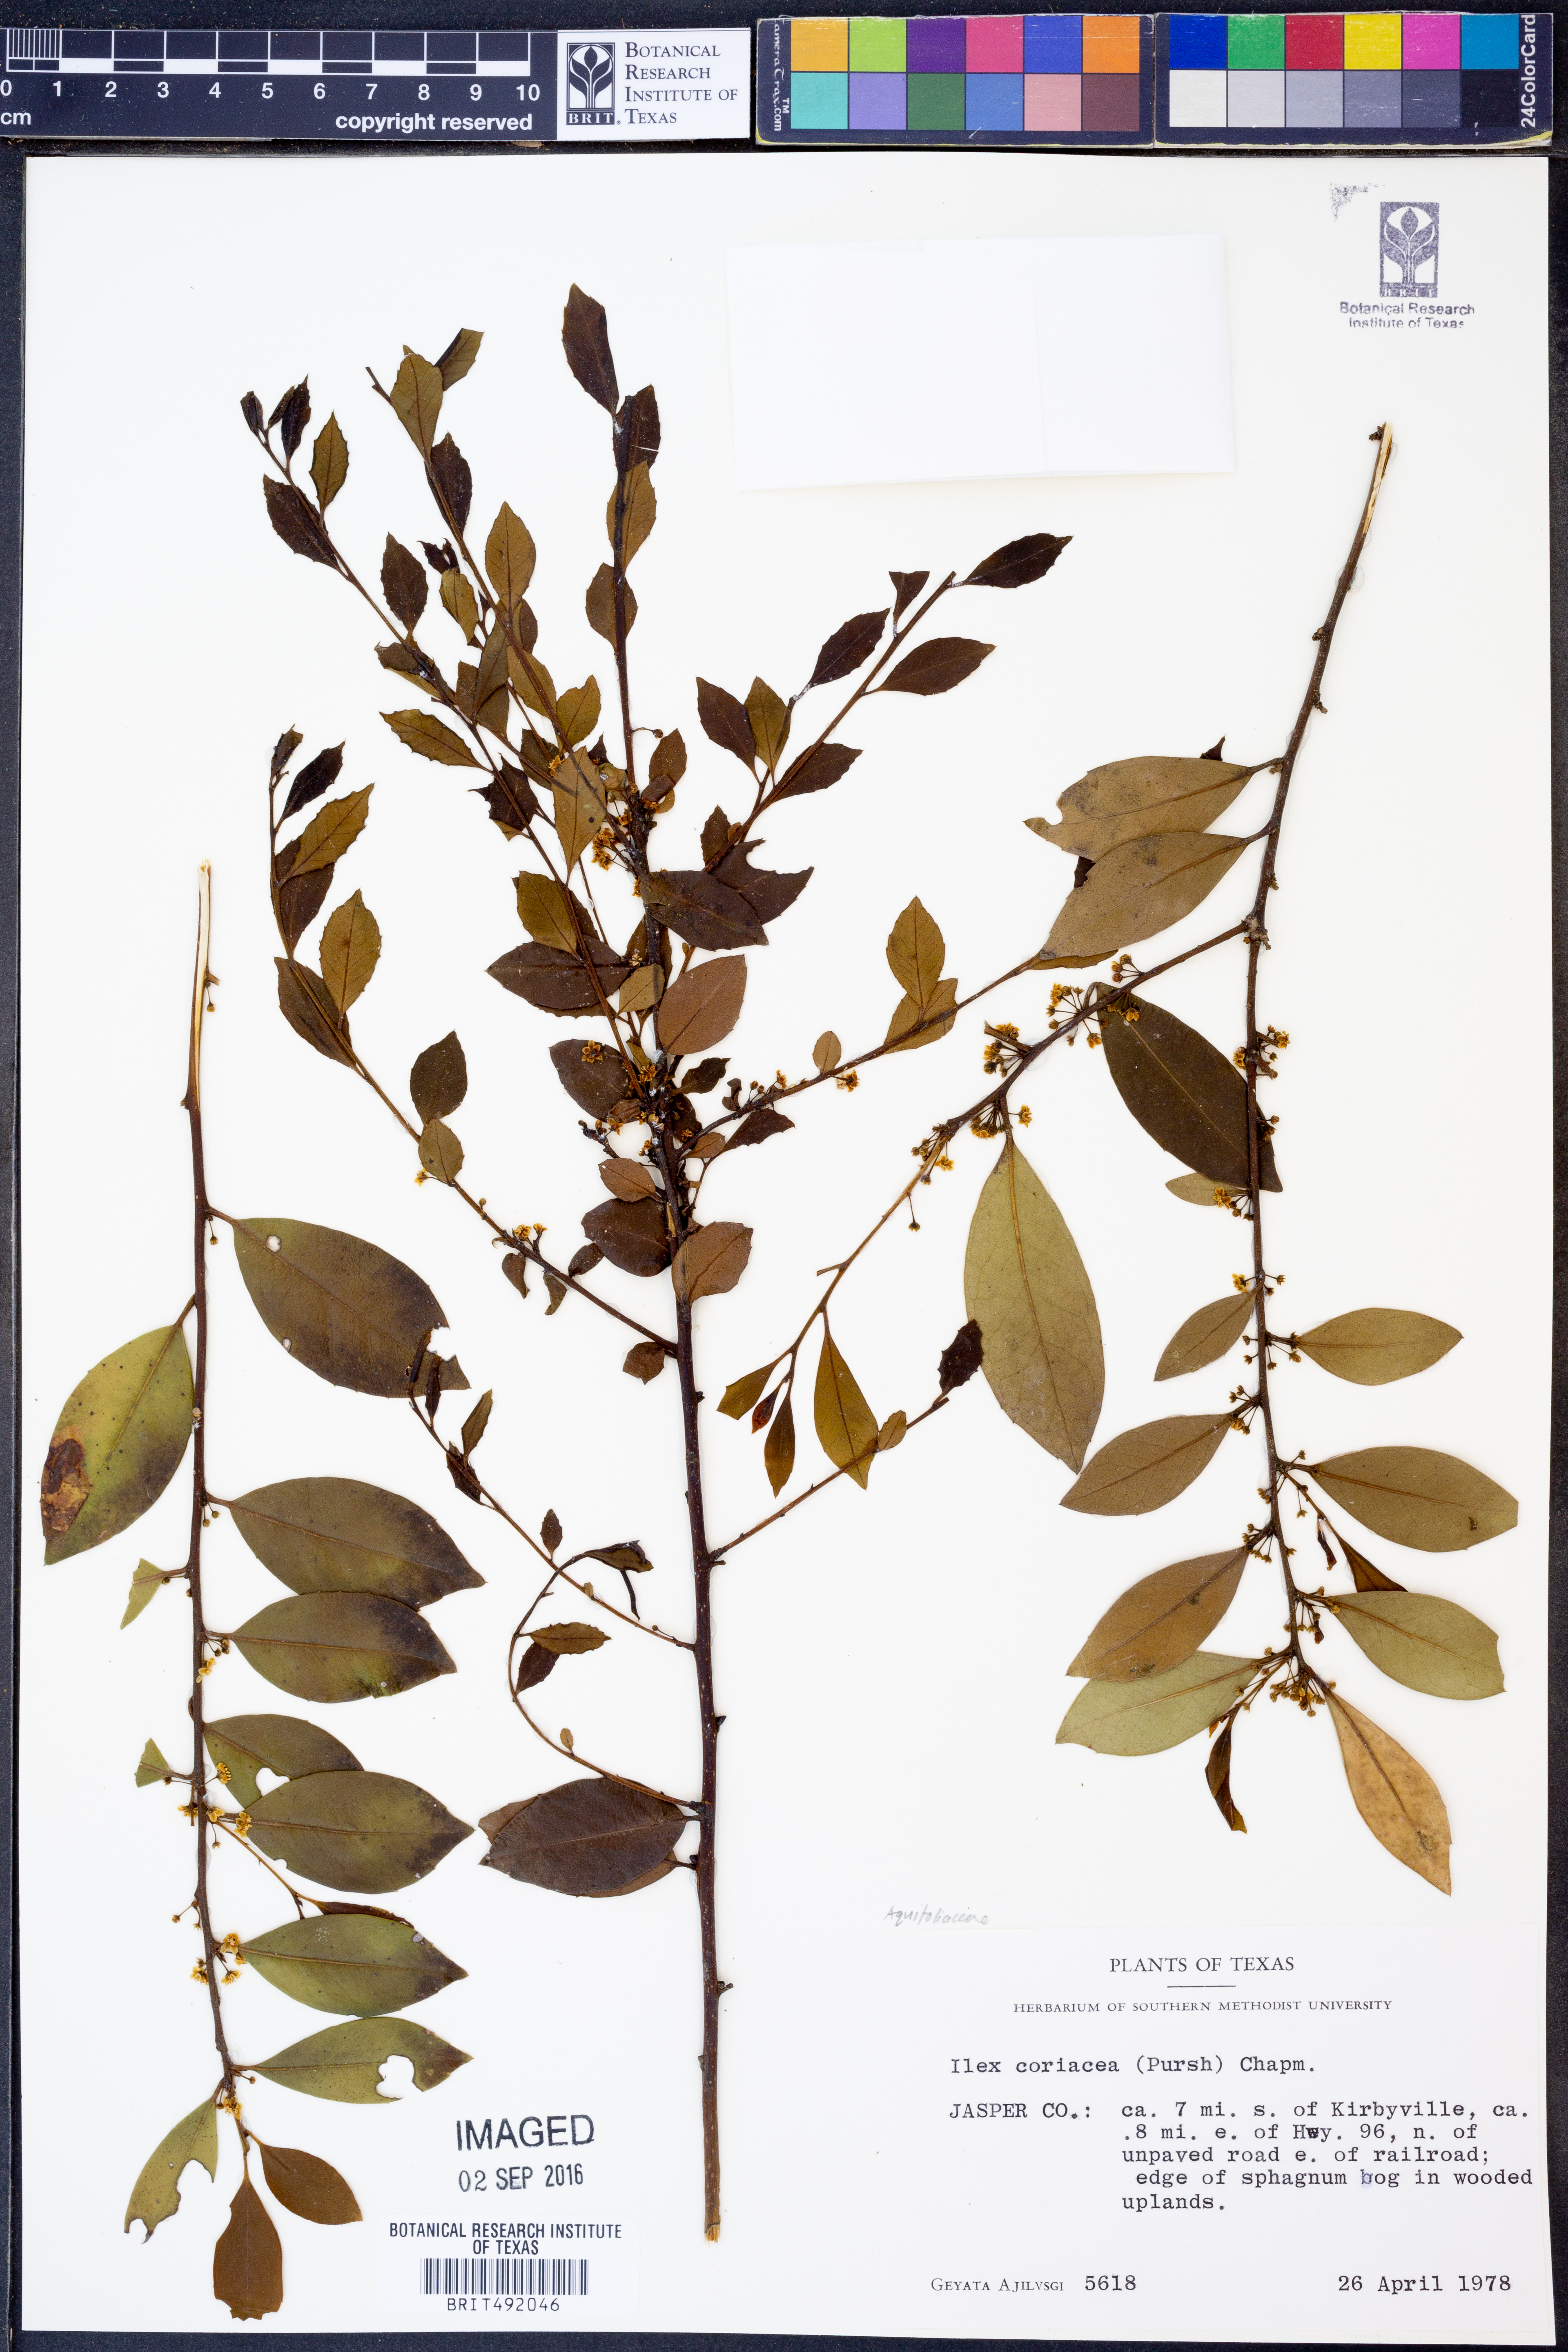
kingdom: Plantae
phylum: Tracheophyta
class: Magnoliopsida
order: Aquifoliales
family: Aquifoliaceae
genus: Ilex
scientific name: Ilex coriacea
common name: Sweet gallberry
